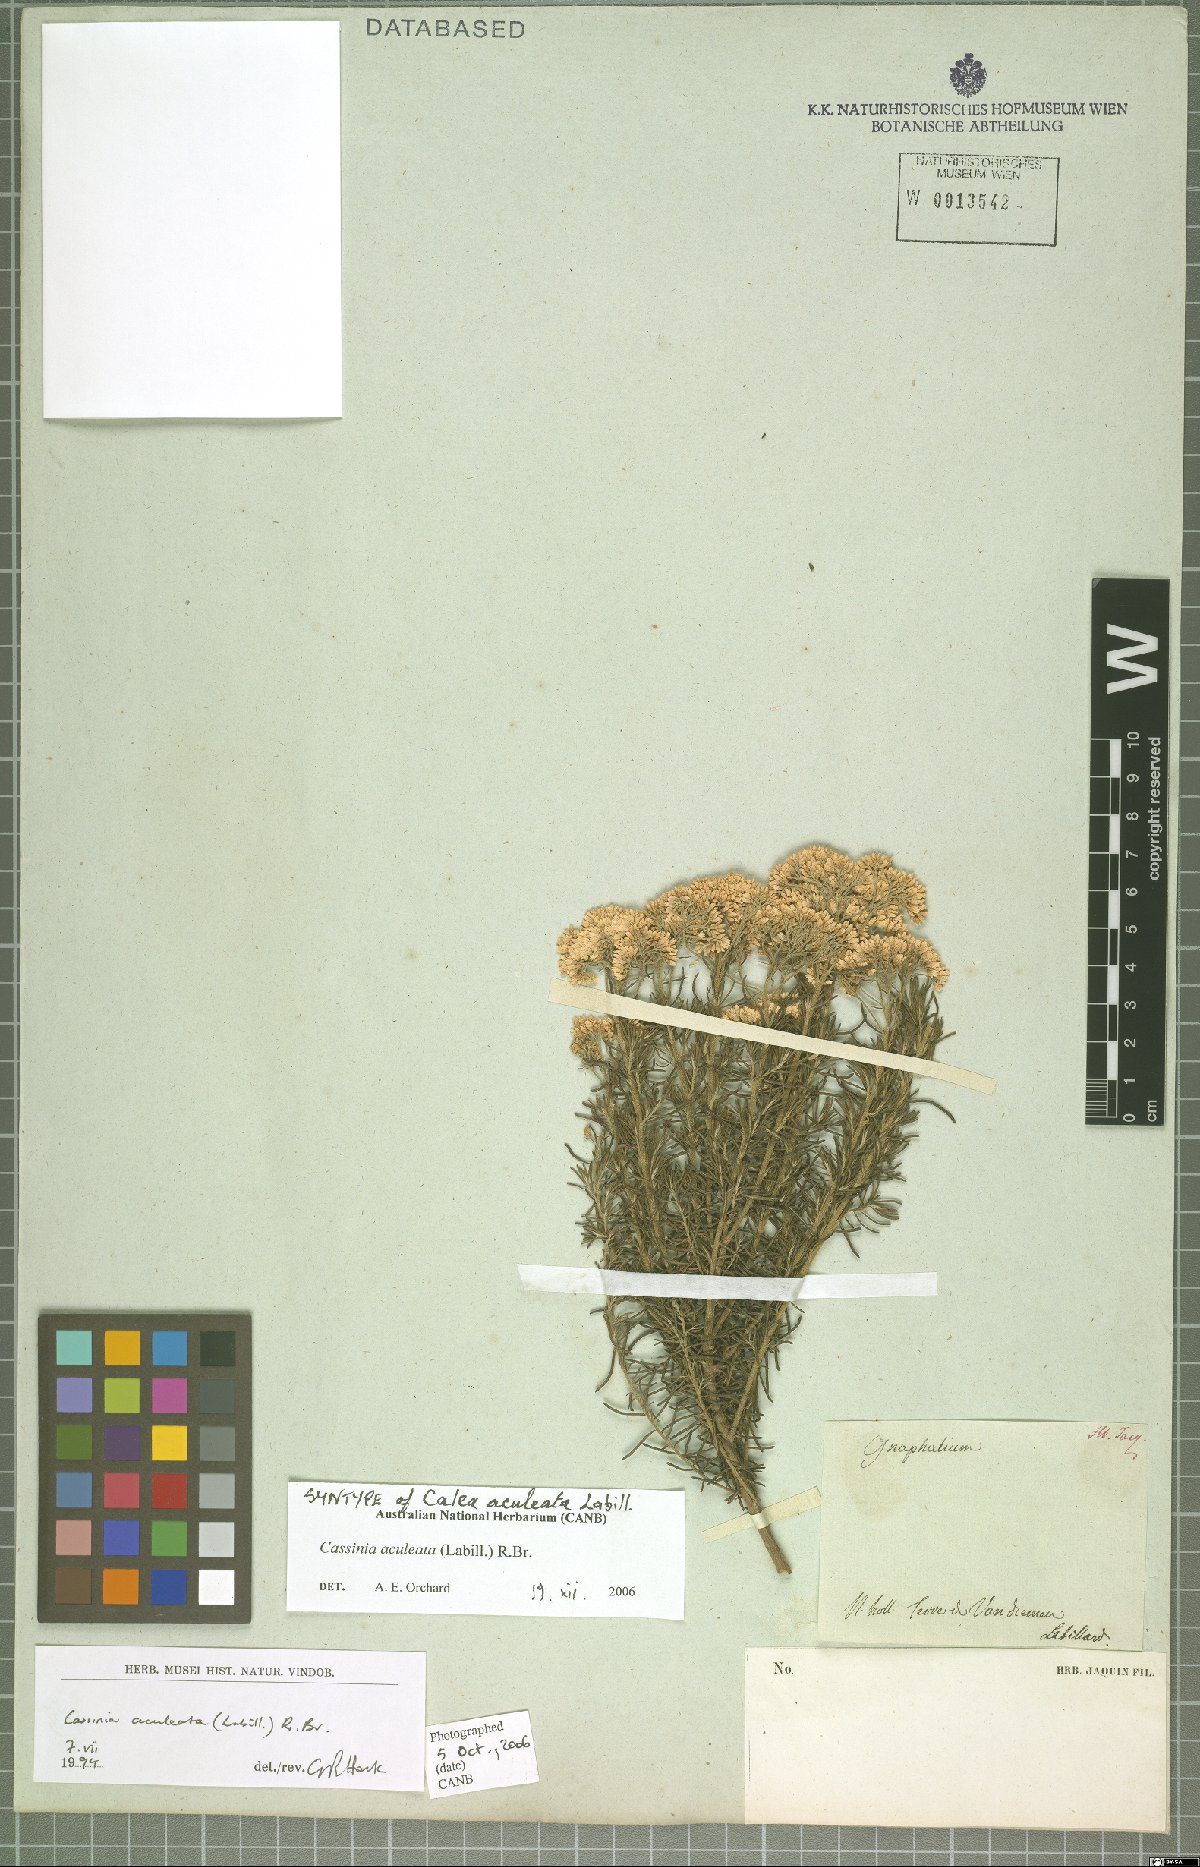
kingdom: Plantae
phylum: Tracheophyta
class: Magnoliopsida
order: Asterales
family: Asteraceae
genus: Cassinia
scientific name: Cassinia aculeata
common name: Australian tauhinu
